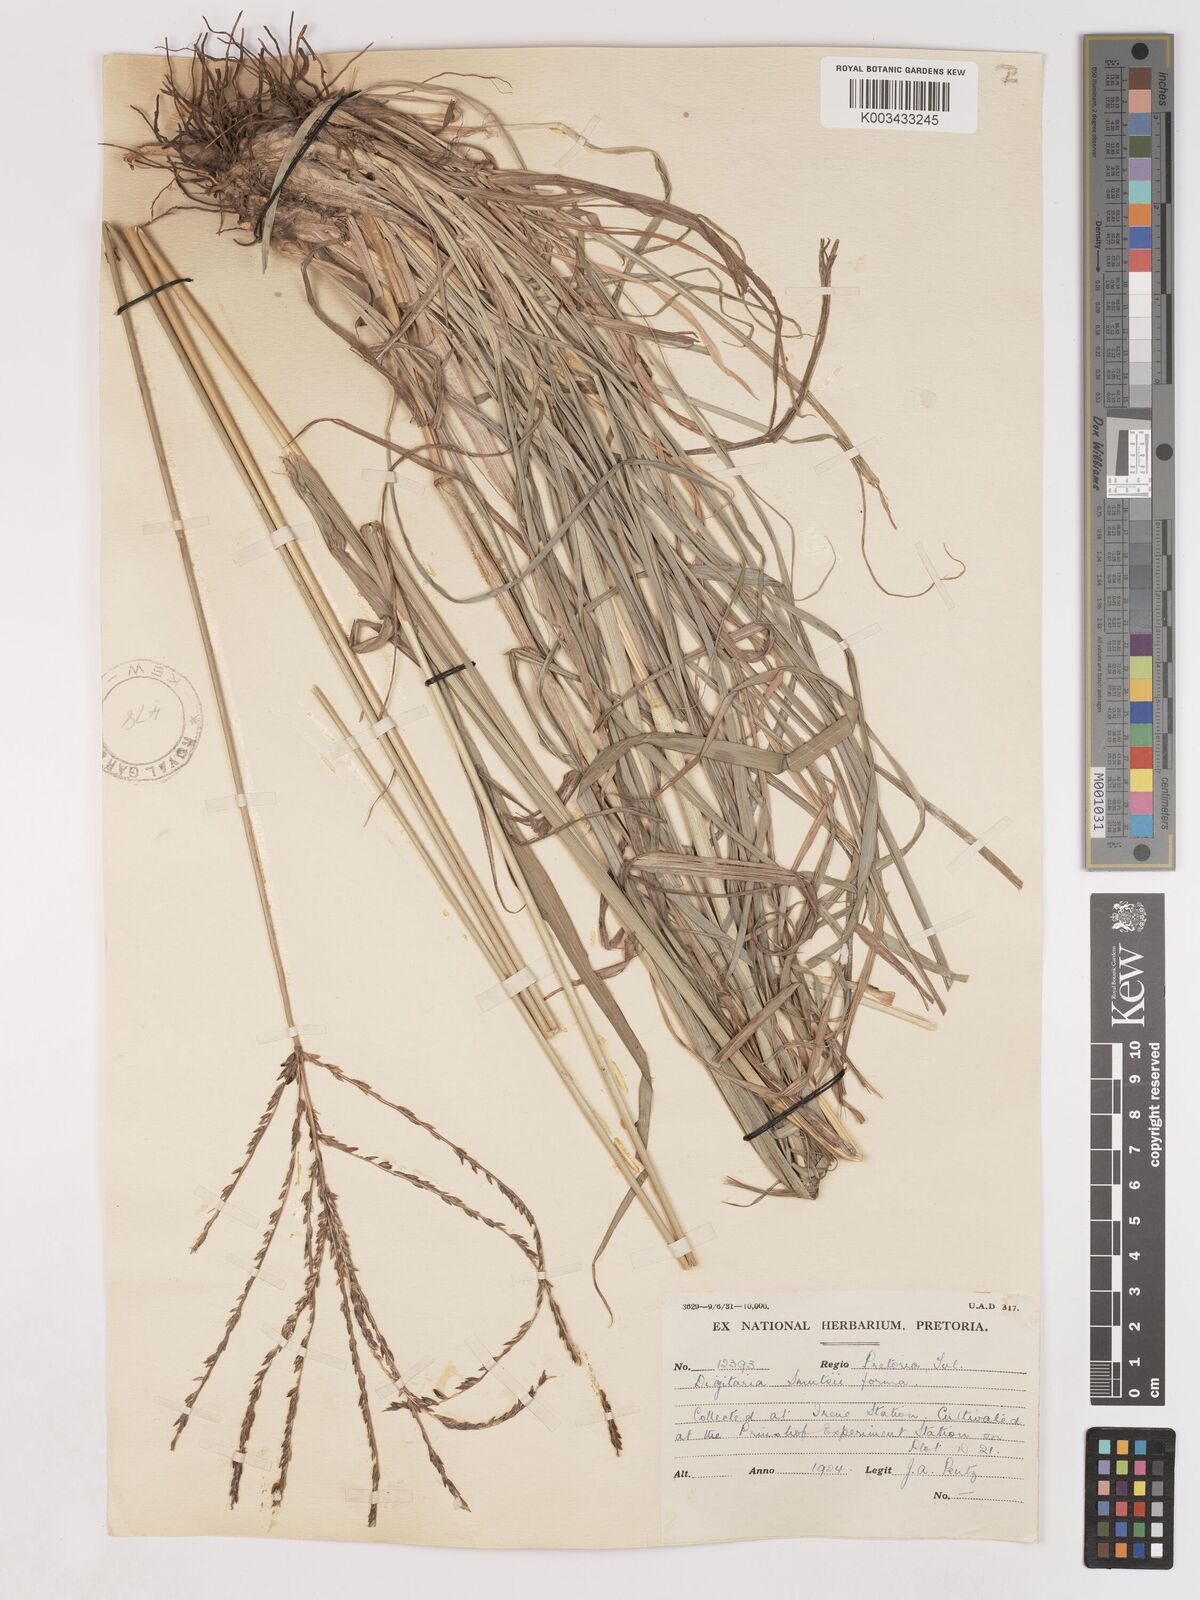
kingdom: Plantae
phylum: Tracheophyta
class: Liliopsida
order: Poales
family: Poaceae
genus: Digitaria
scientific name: Digitaria eriantha
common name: Digitgrass
